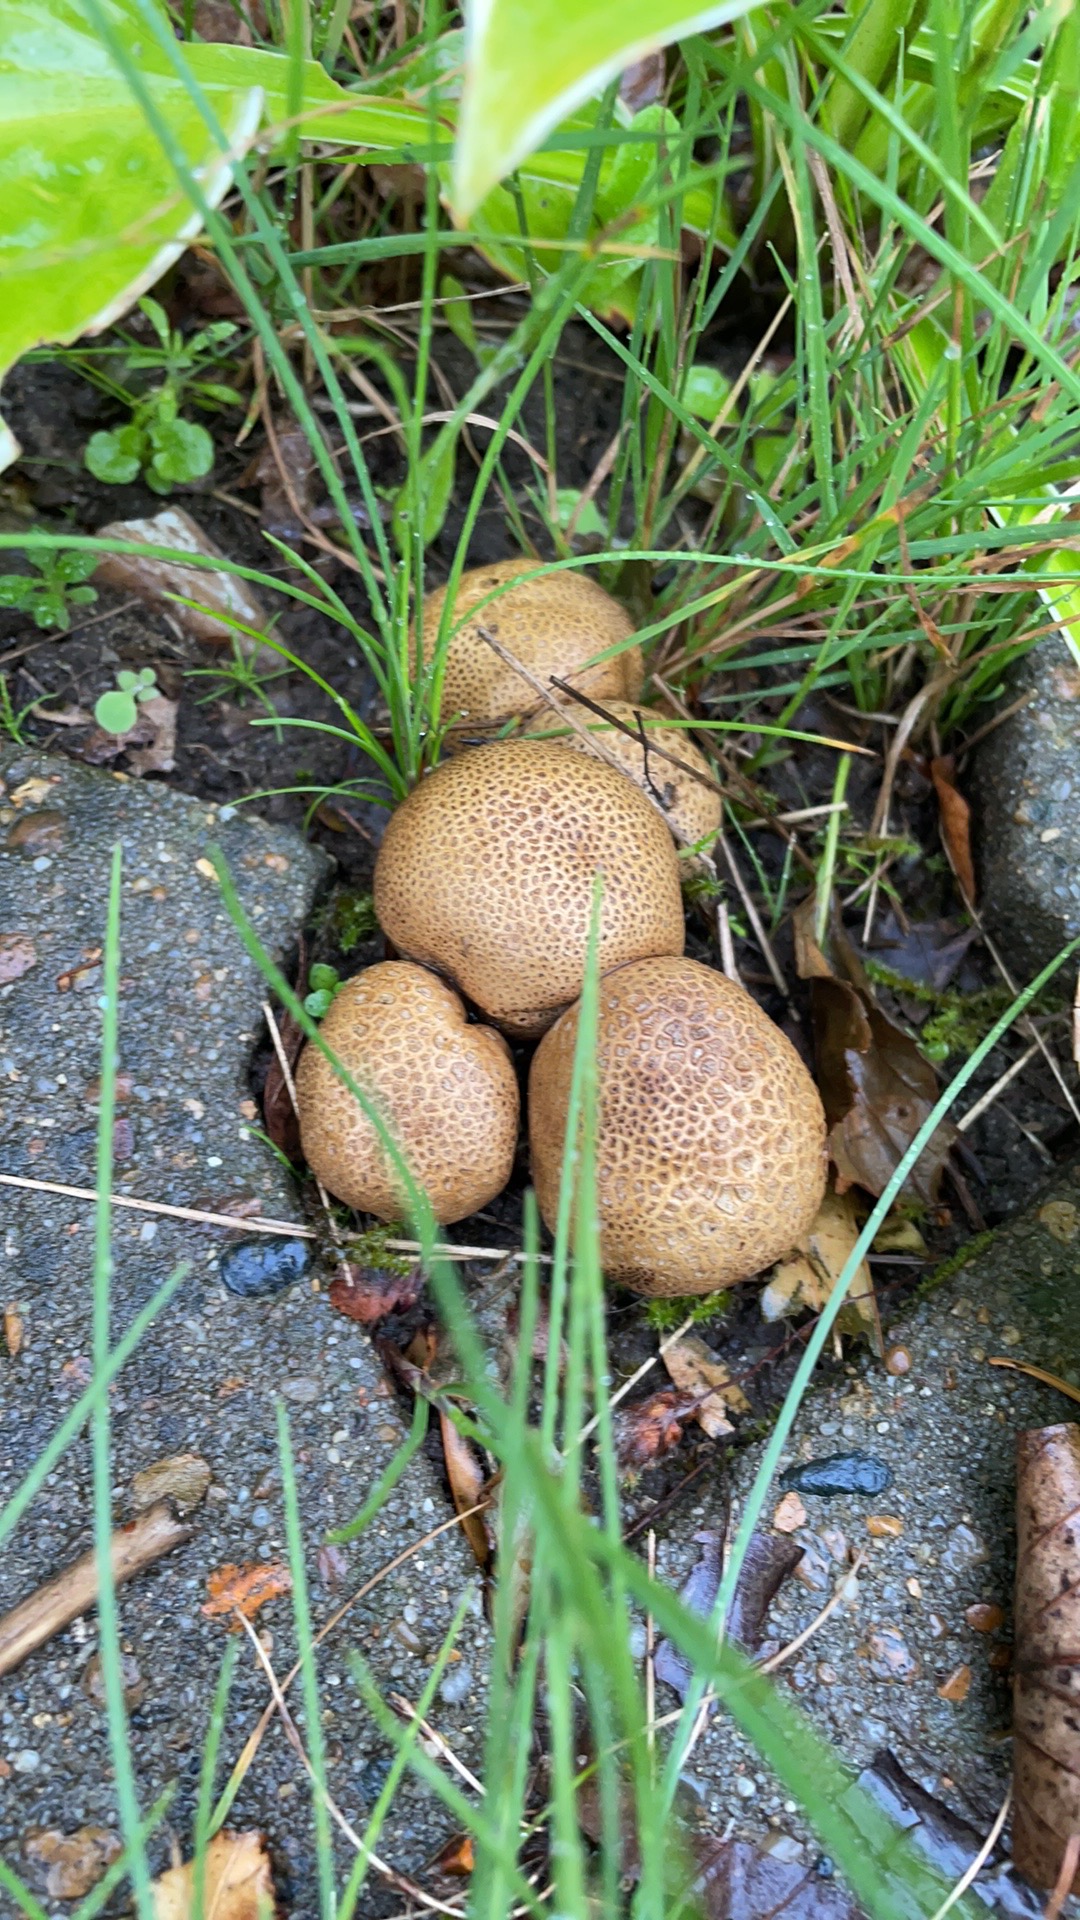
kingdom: Fungi
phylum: Basidiomycota
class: Agaricomycetes
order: Boletales
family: Sclerodermataceae
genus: Scleroderma
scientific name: Scleroderma
